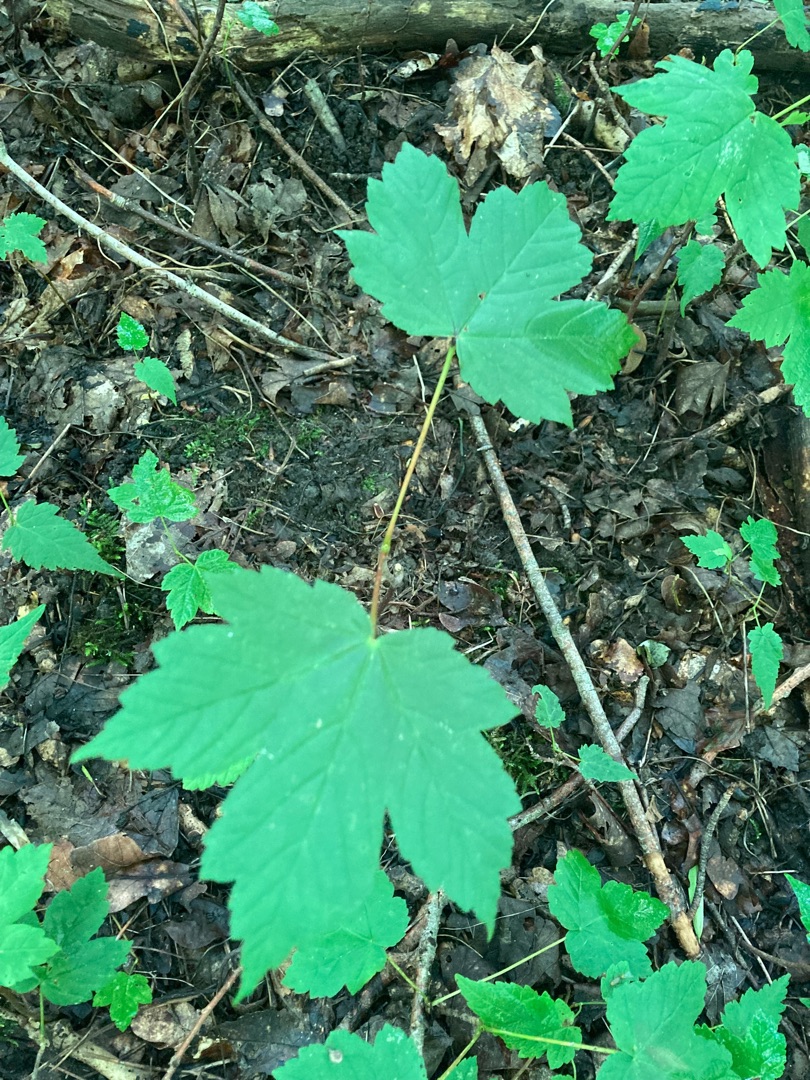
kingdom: Plantae
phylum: Tracheophyta
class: Magnoliopsida
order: Sapindales
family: Sapindaceae
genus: Acer
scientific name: Acer pseudoplatanus
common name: Ahorn
